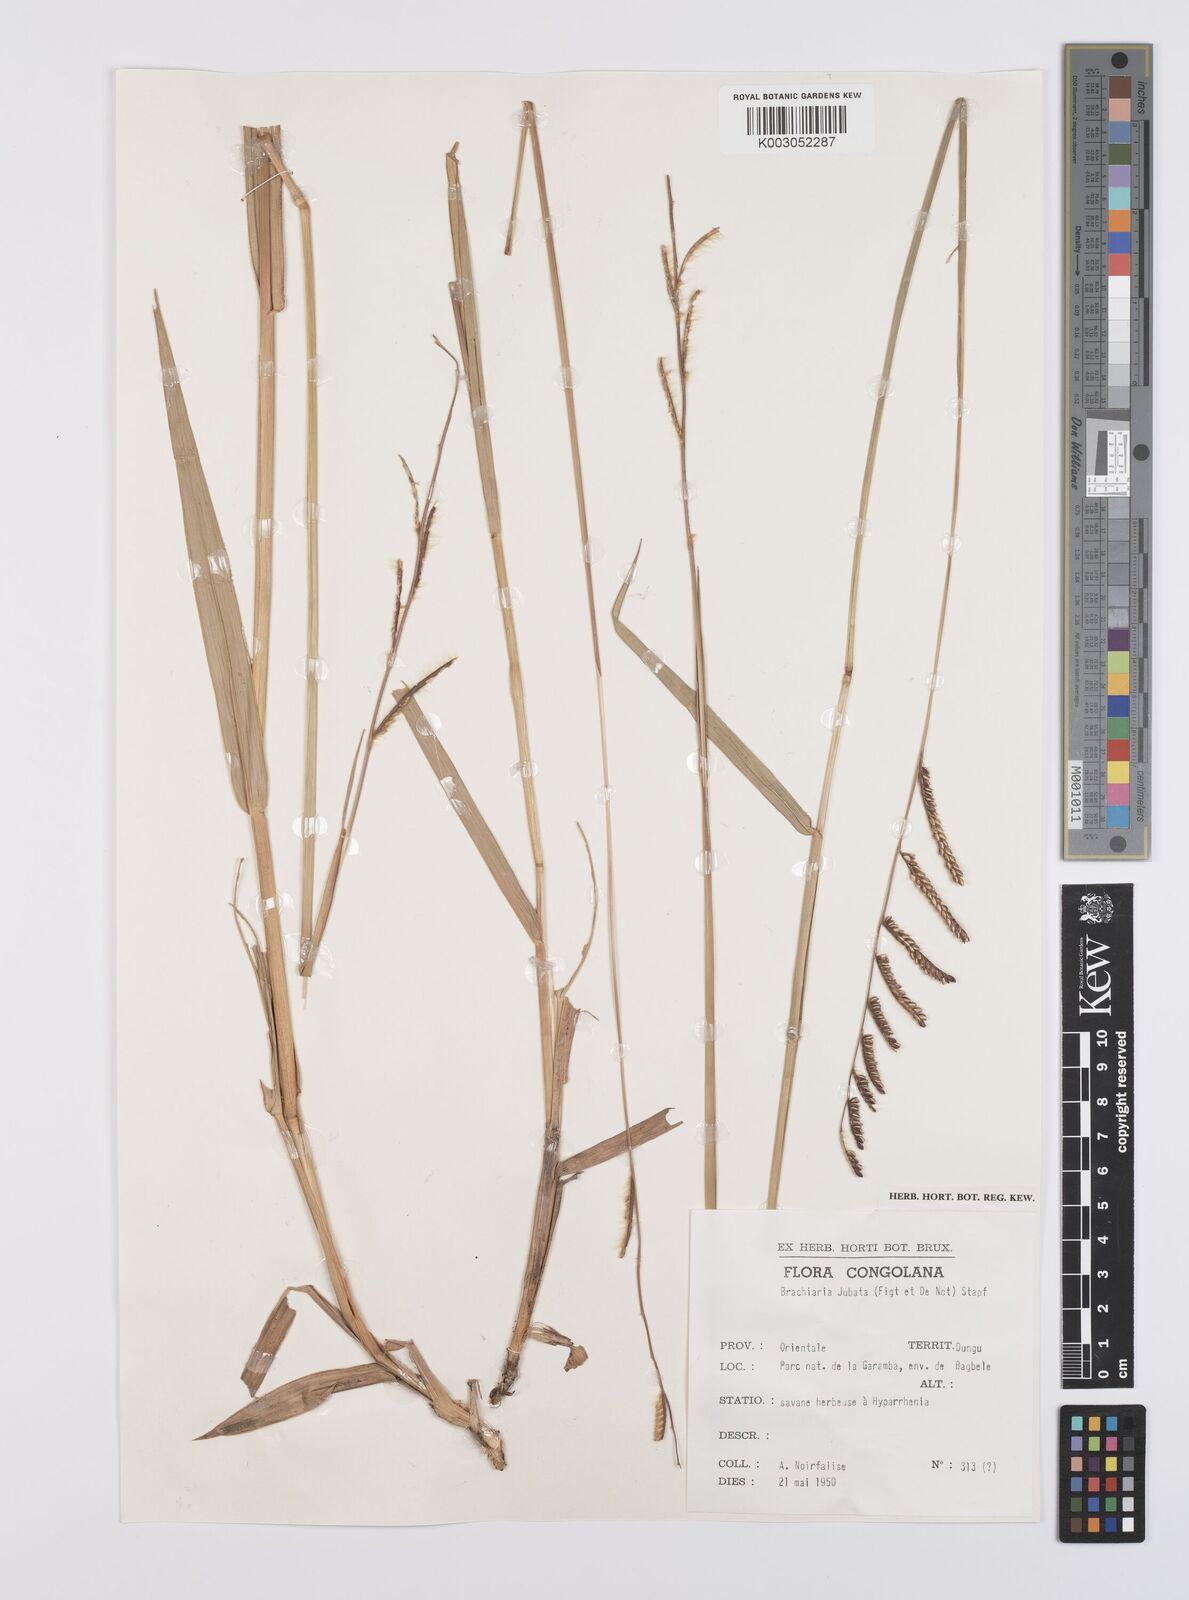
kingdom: Plantae
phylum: Tracheophyta
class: Liliopsida
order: Poales
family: Poaceae
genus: Urochloa
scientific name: Urochloa jubata
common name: Buffalograss
